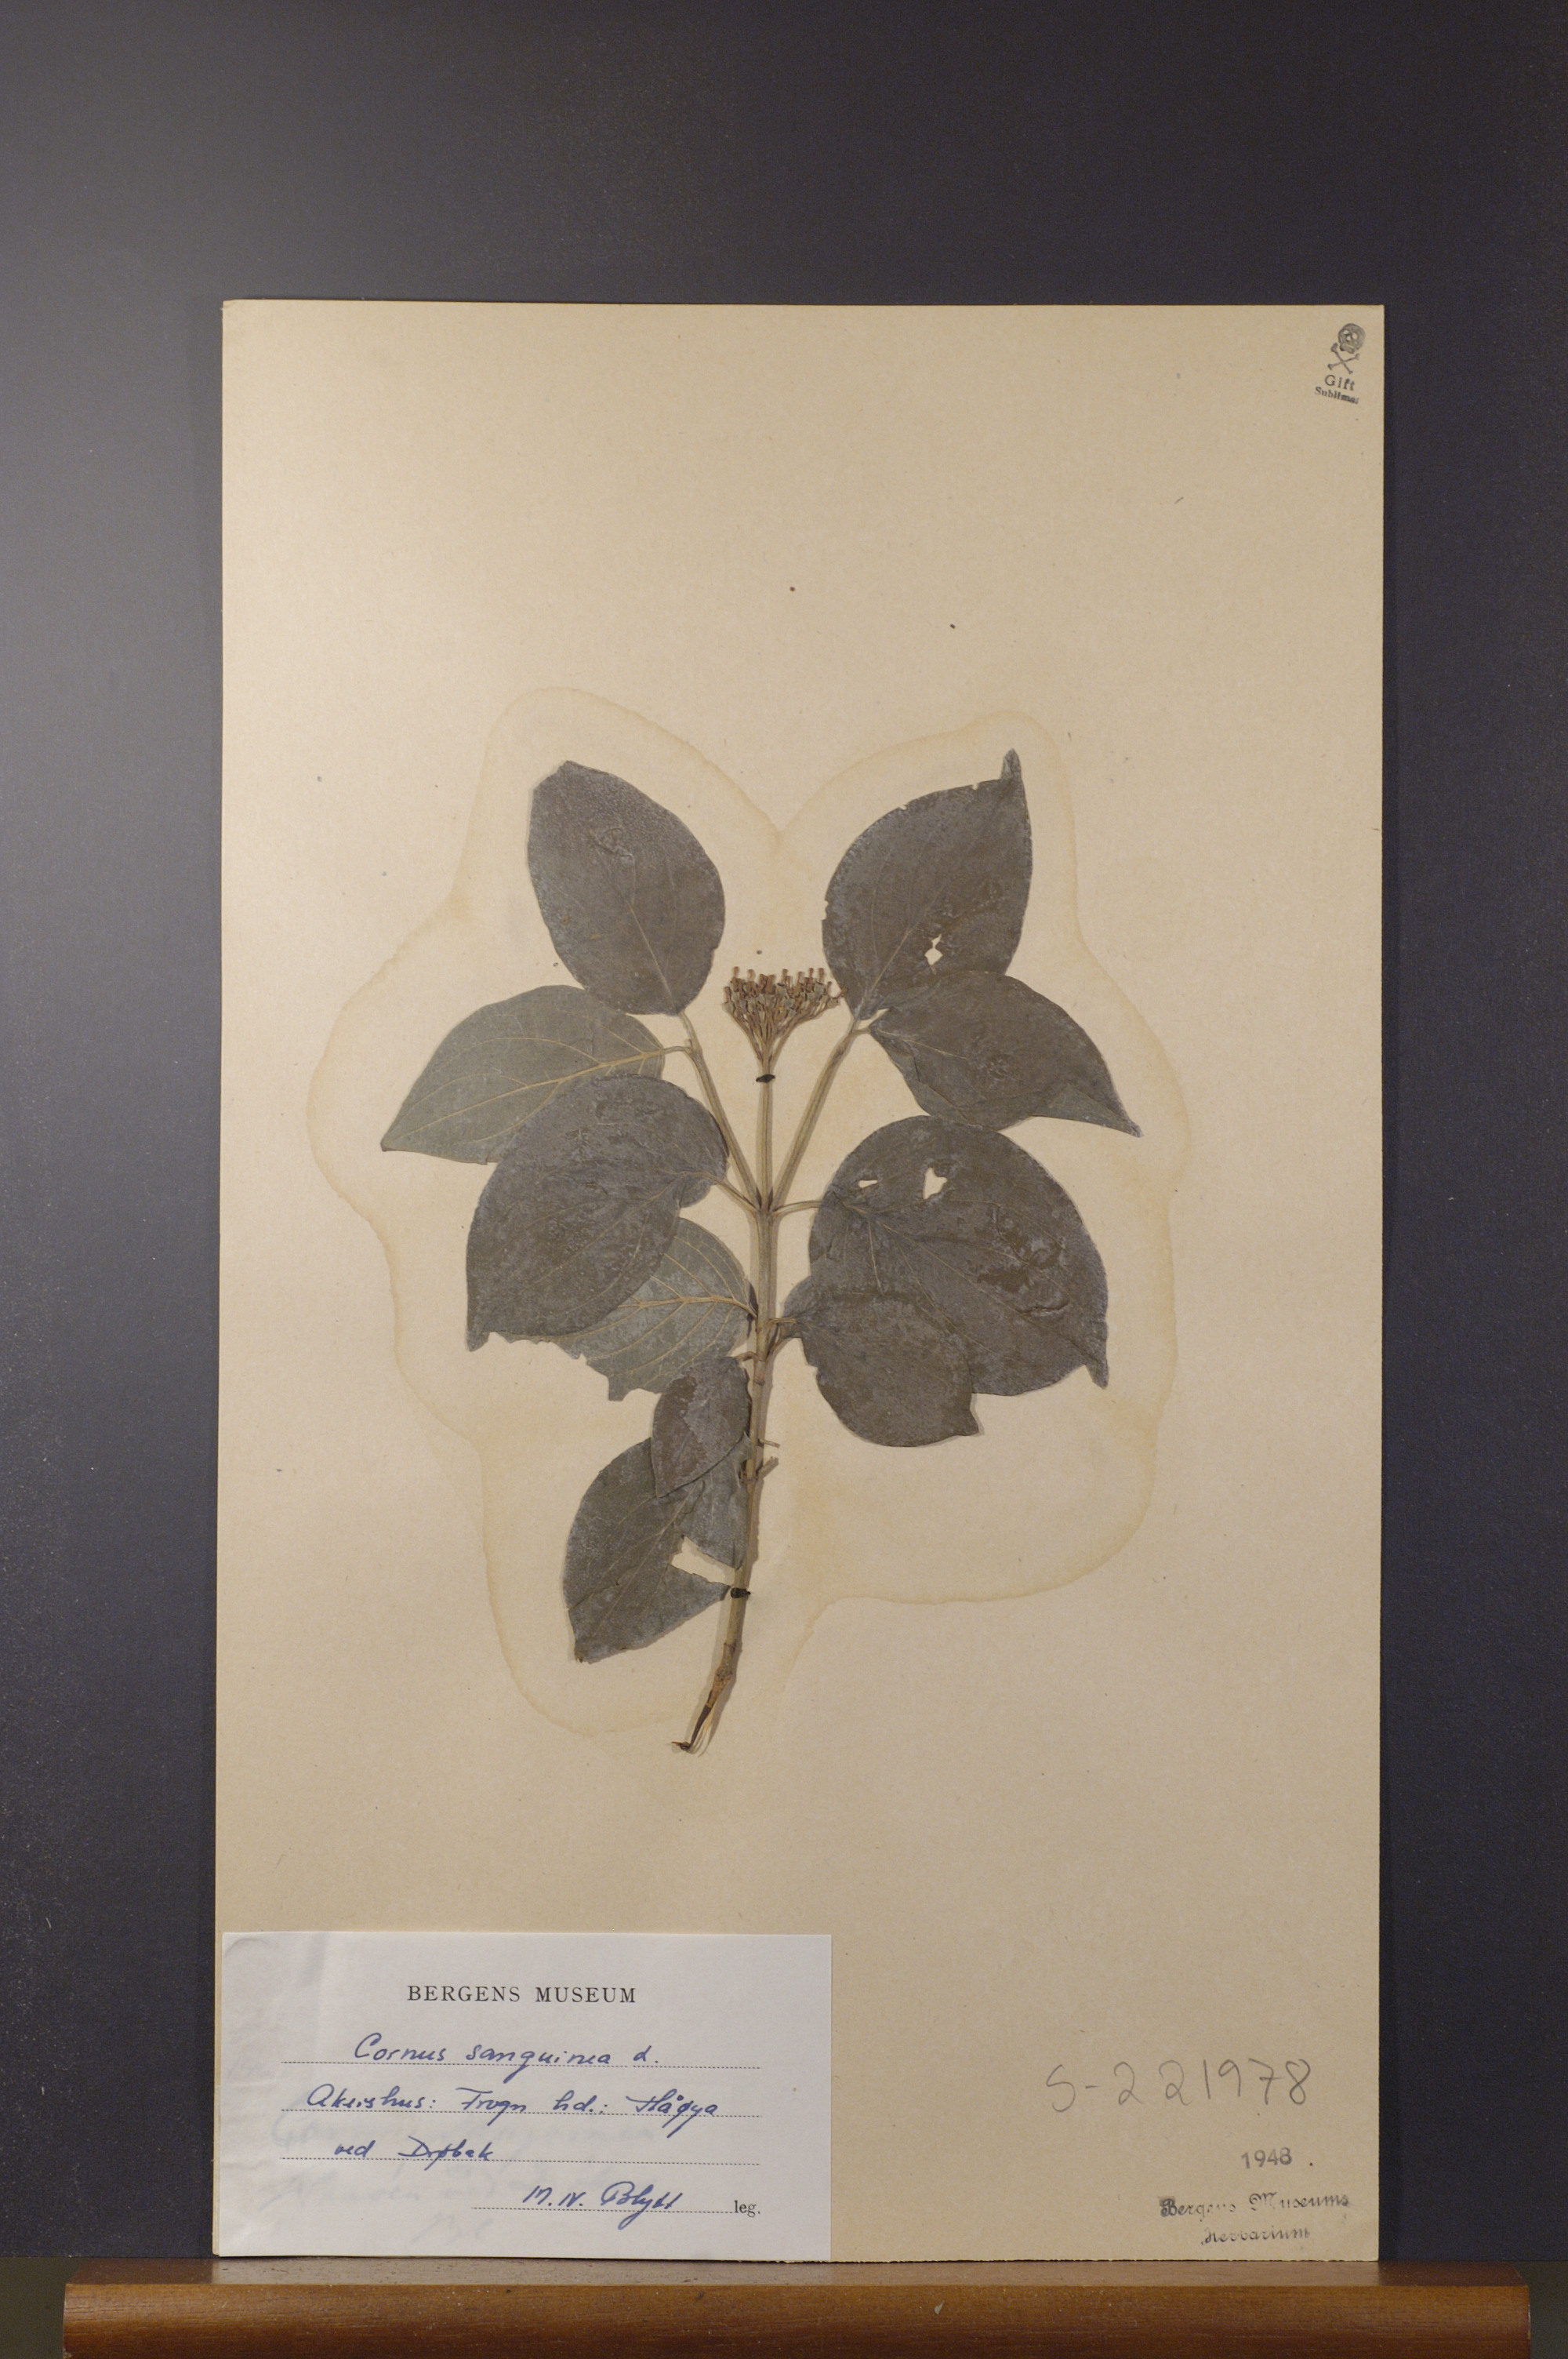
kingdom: Plantae
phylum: Tracheophyta
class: Magnoliopsida
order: Cornales
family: Cornaceae
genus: Cornus
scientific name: Cornus sanguinea
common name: Dogwood
